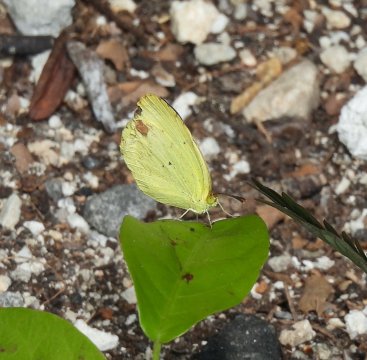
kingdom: Animalia
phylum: Arthropoda
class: Insecta
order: Lepidoptera
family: Pieridae
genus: Pyrisitia
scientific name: Pyrisitia nise
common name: Mimosa Yellow
